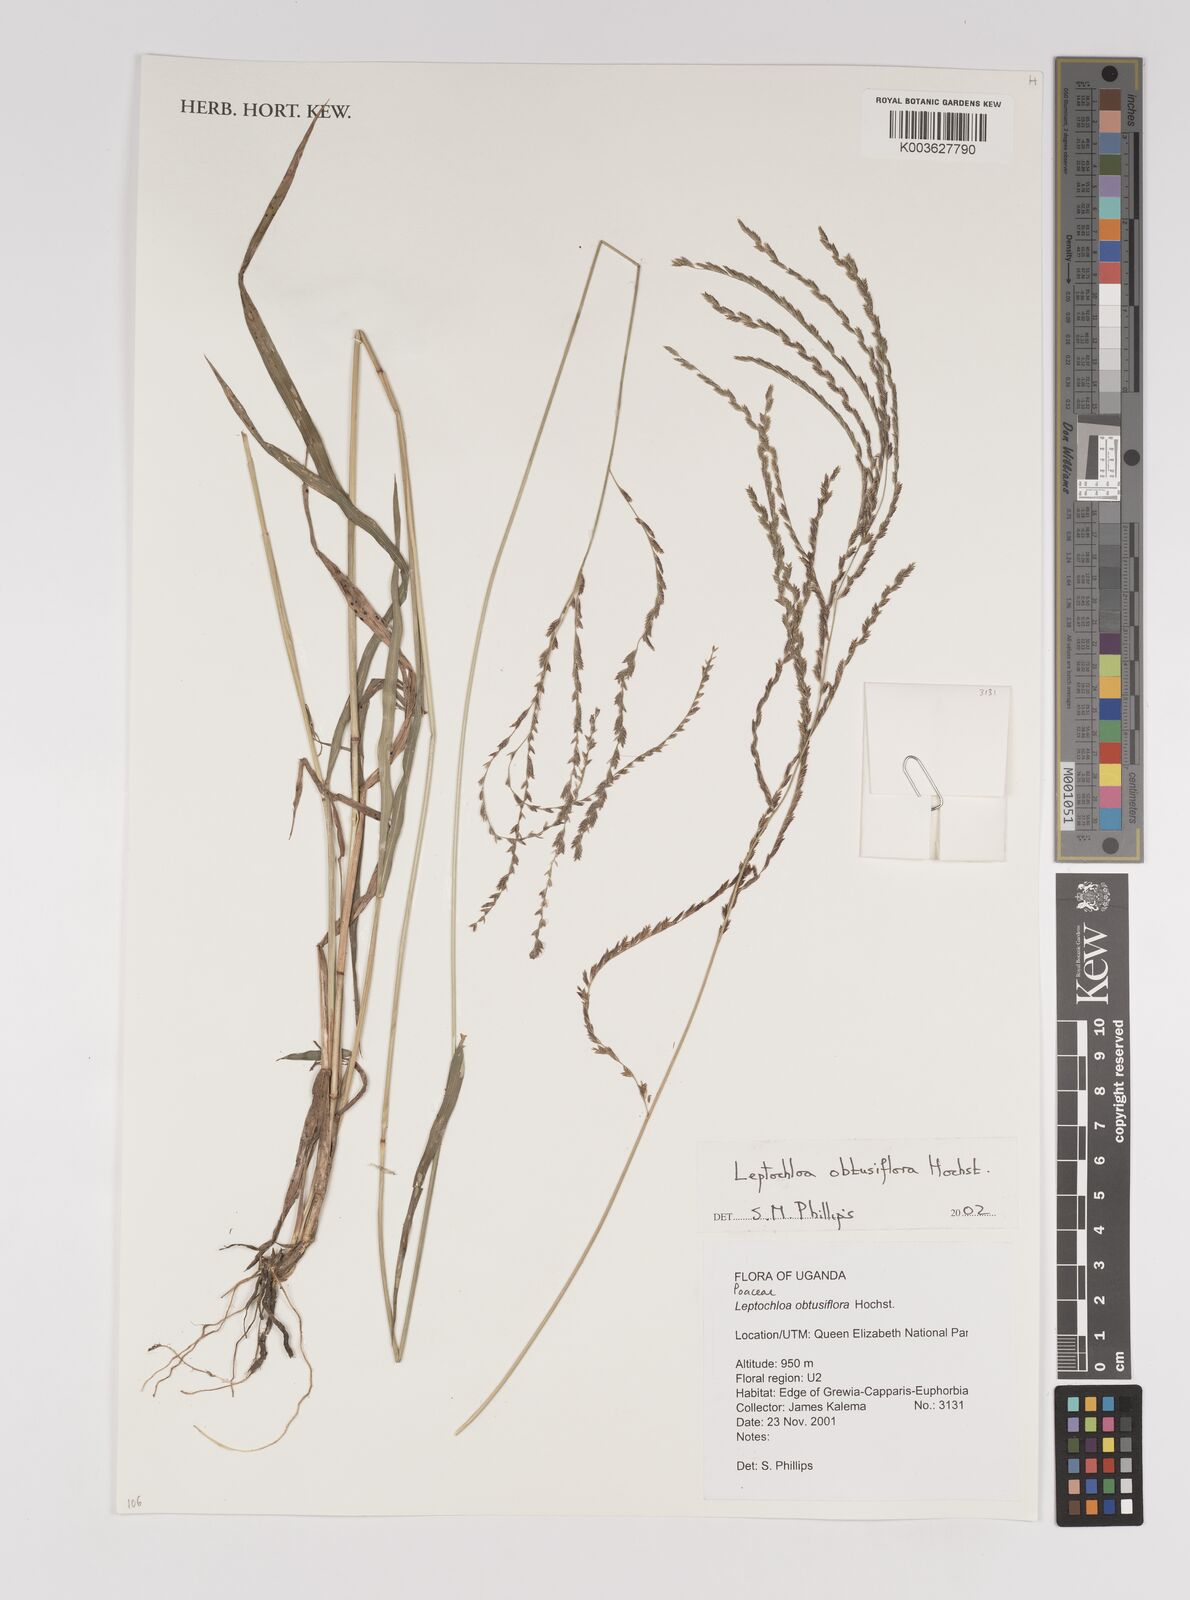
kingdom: Plantae
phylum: Tracheophyta
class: Liliopsida
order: Poales
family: Poaceae
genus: Disakisperma
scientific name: Disakisperma obtusiflorum
